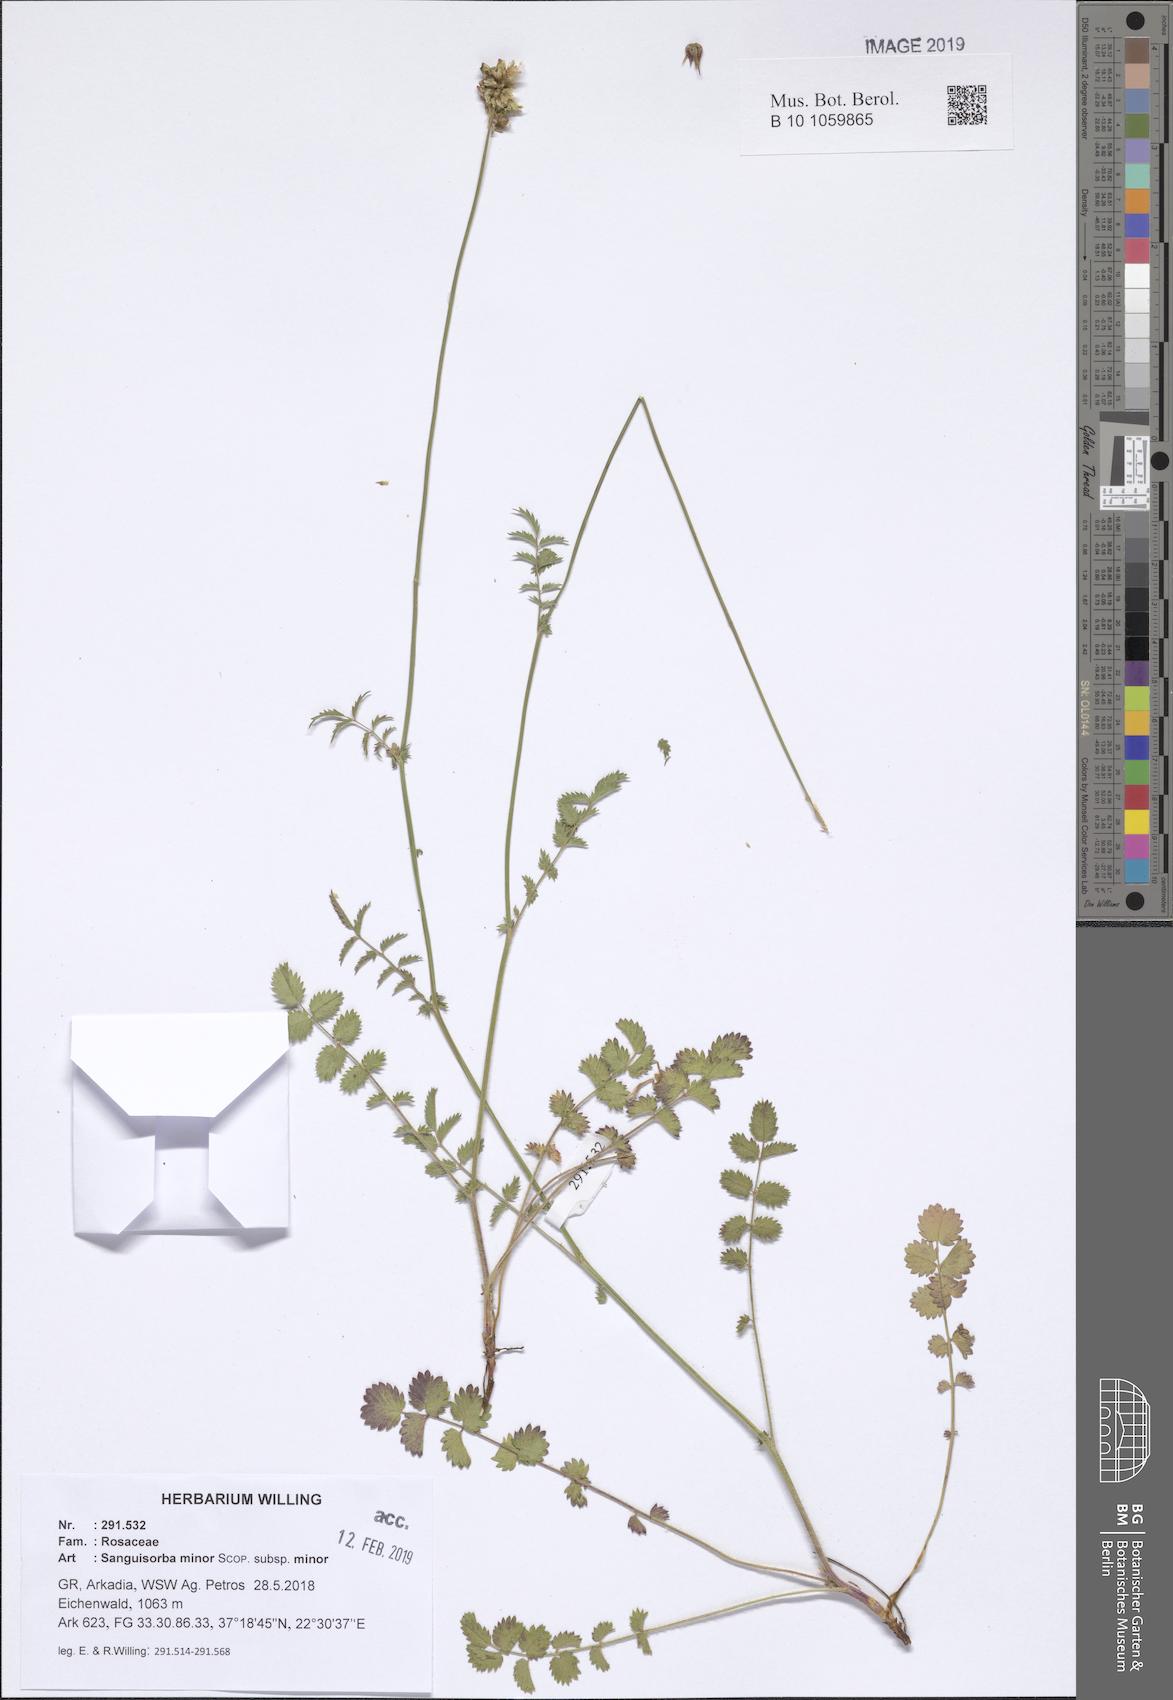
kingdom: Plantae
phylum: Tracheophyta
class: Magnoliopsida
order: Rosales
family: Rosaceae
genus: Poterium
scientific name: Poterium sanguisorba
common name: Salad burnet
